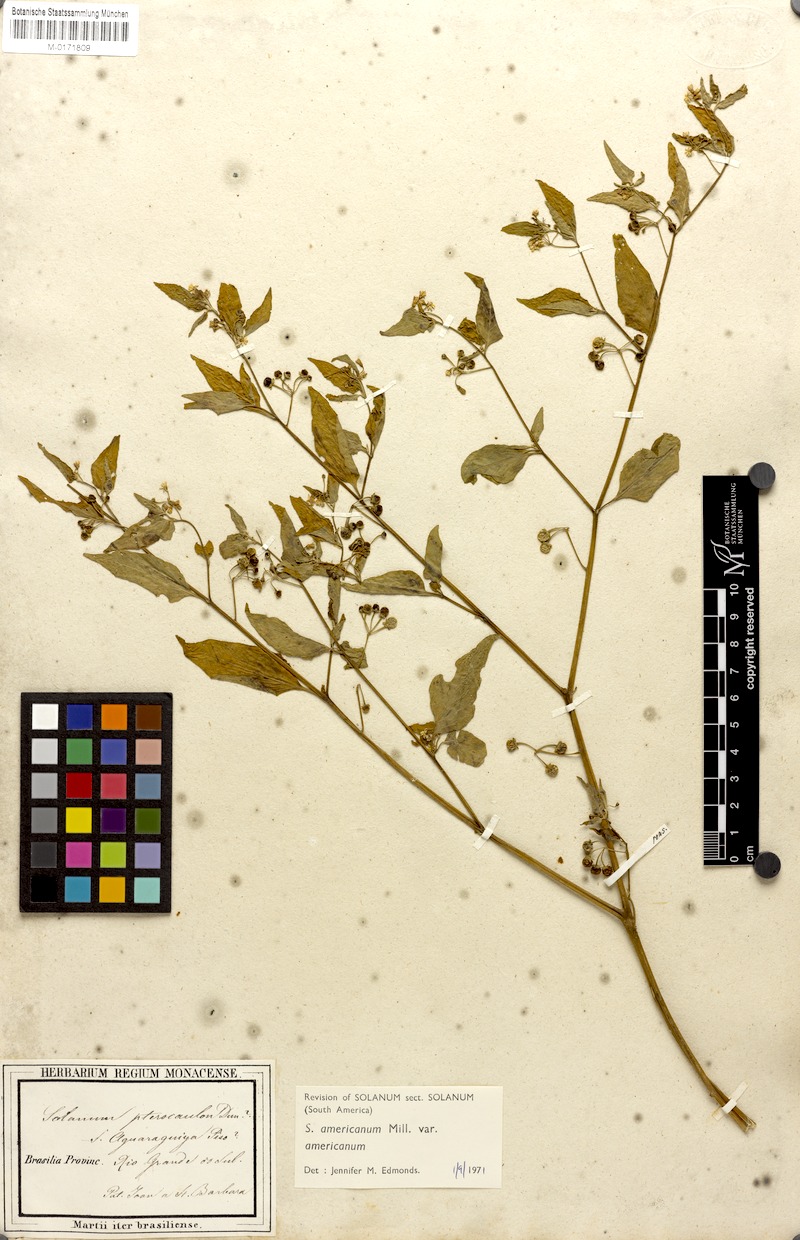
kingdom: Plantae
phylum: Tracheophyta
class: Magnoliopsida
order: Solanales
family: Solanaceae
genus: Solanum
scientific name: Solanum americanum
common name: American black nightshade
